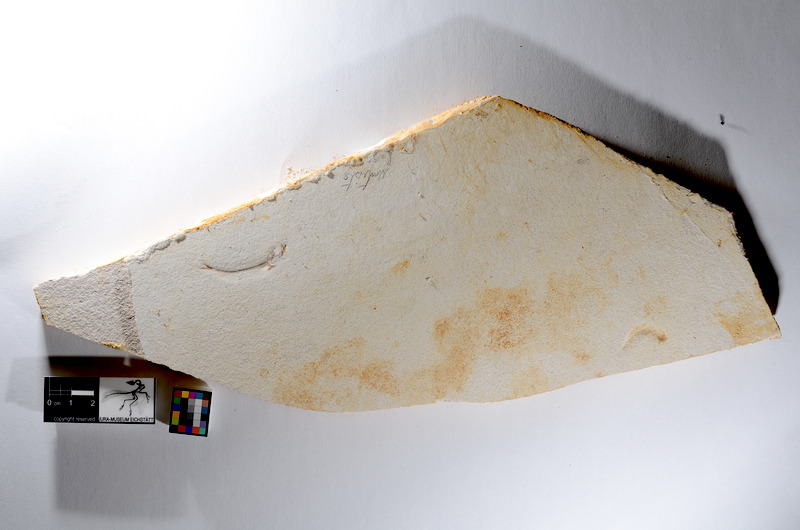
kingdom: Animalia
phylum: Chordata
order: Salmoniformes
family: Orthogonikleithridae
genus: Orthogonikleithrus
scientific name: Orthogonikleithrus hoelli
